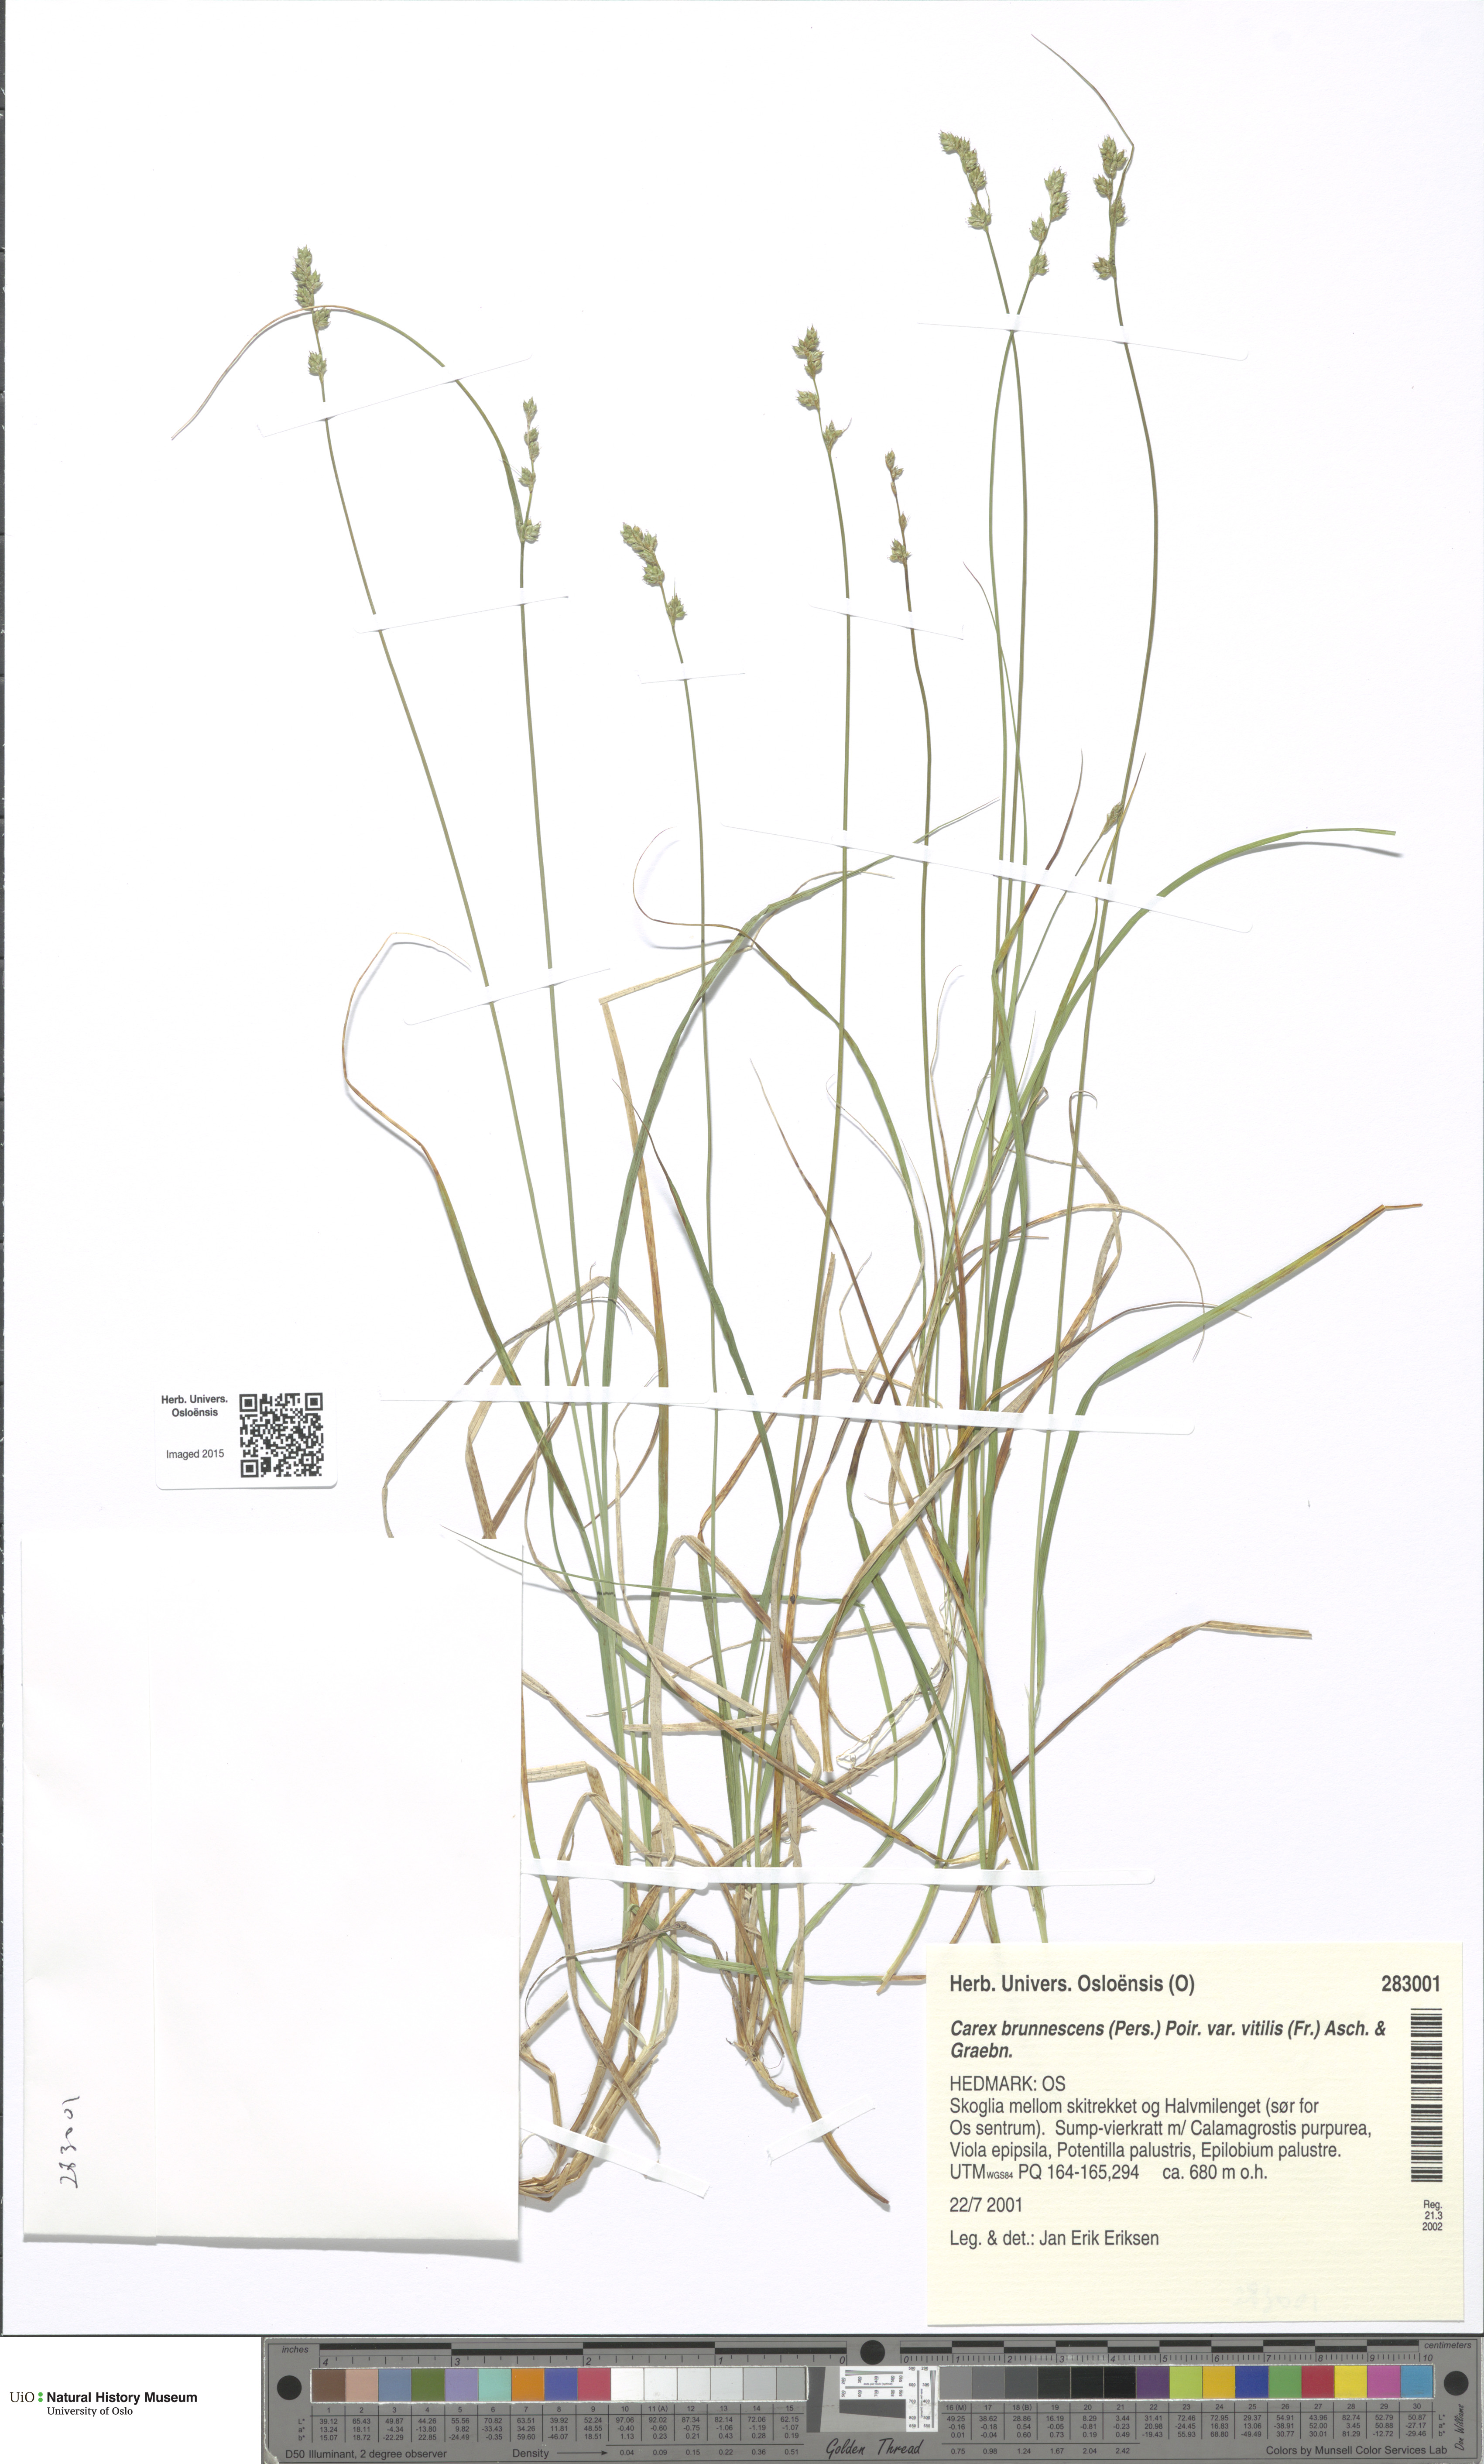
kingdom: Plantae
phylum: Tracheophyta
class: Liliopsida
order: Poales
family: Cyperaceae
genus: Carex
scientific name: Carex brunnescens
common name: Brown sedge
